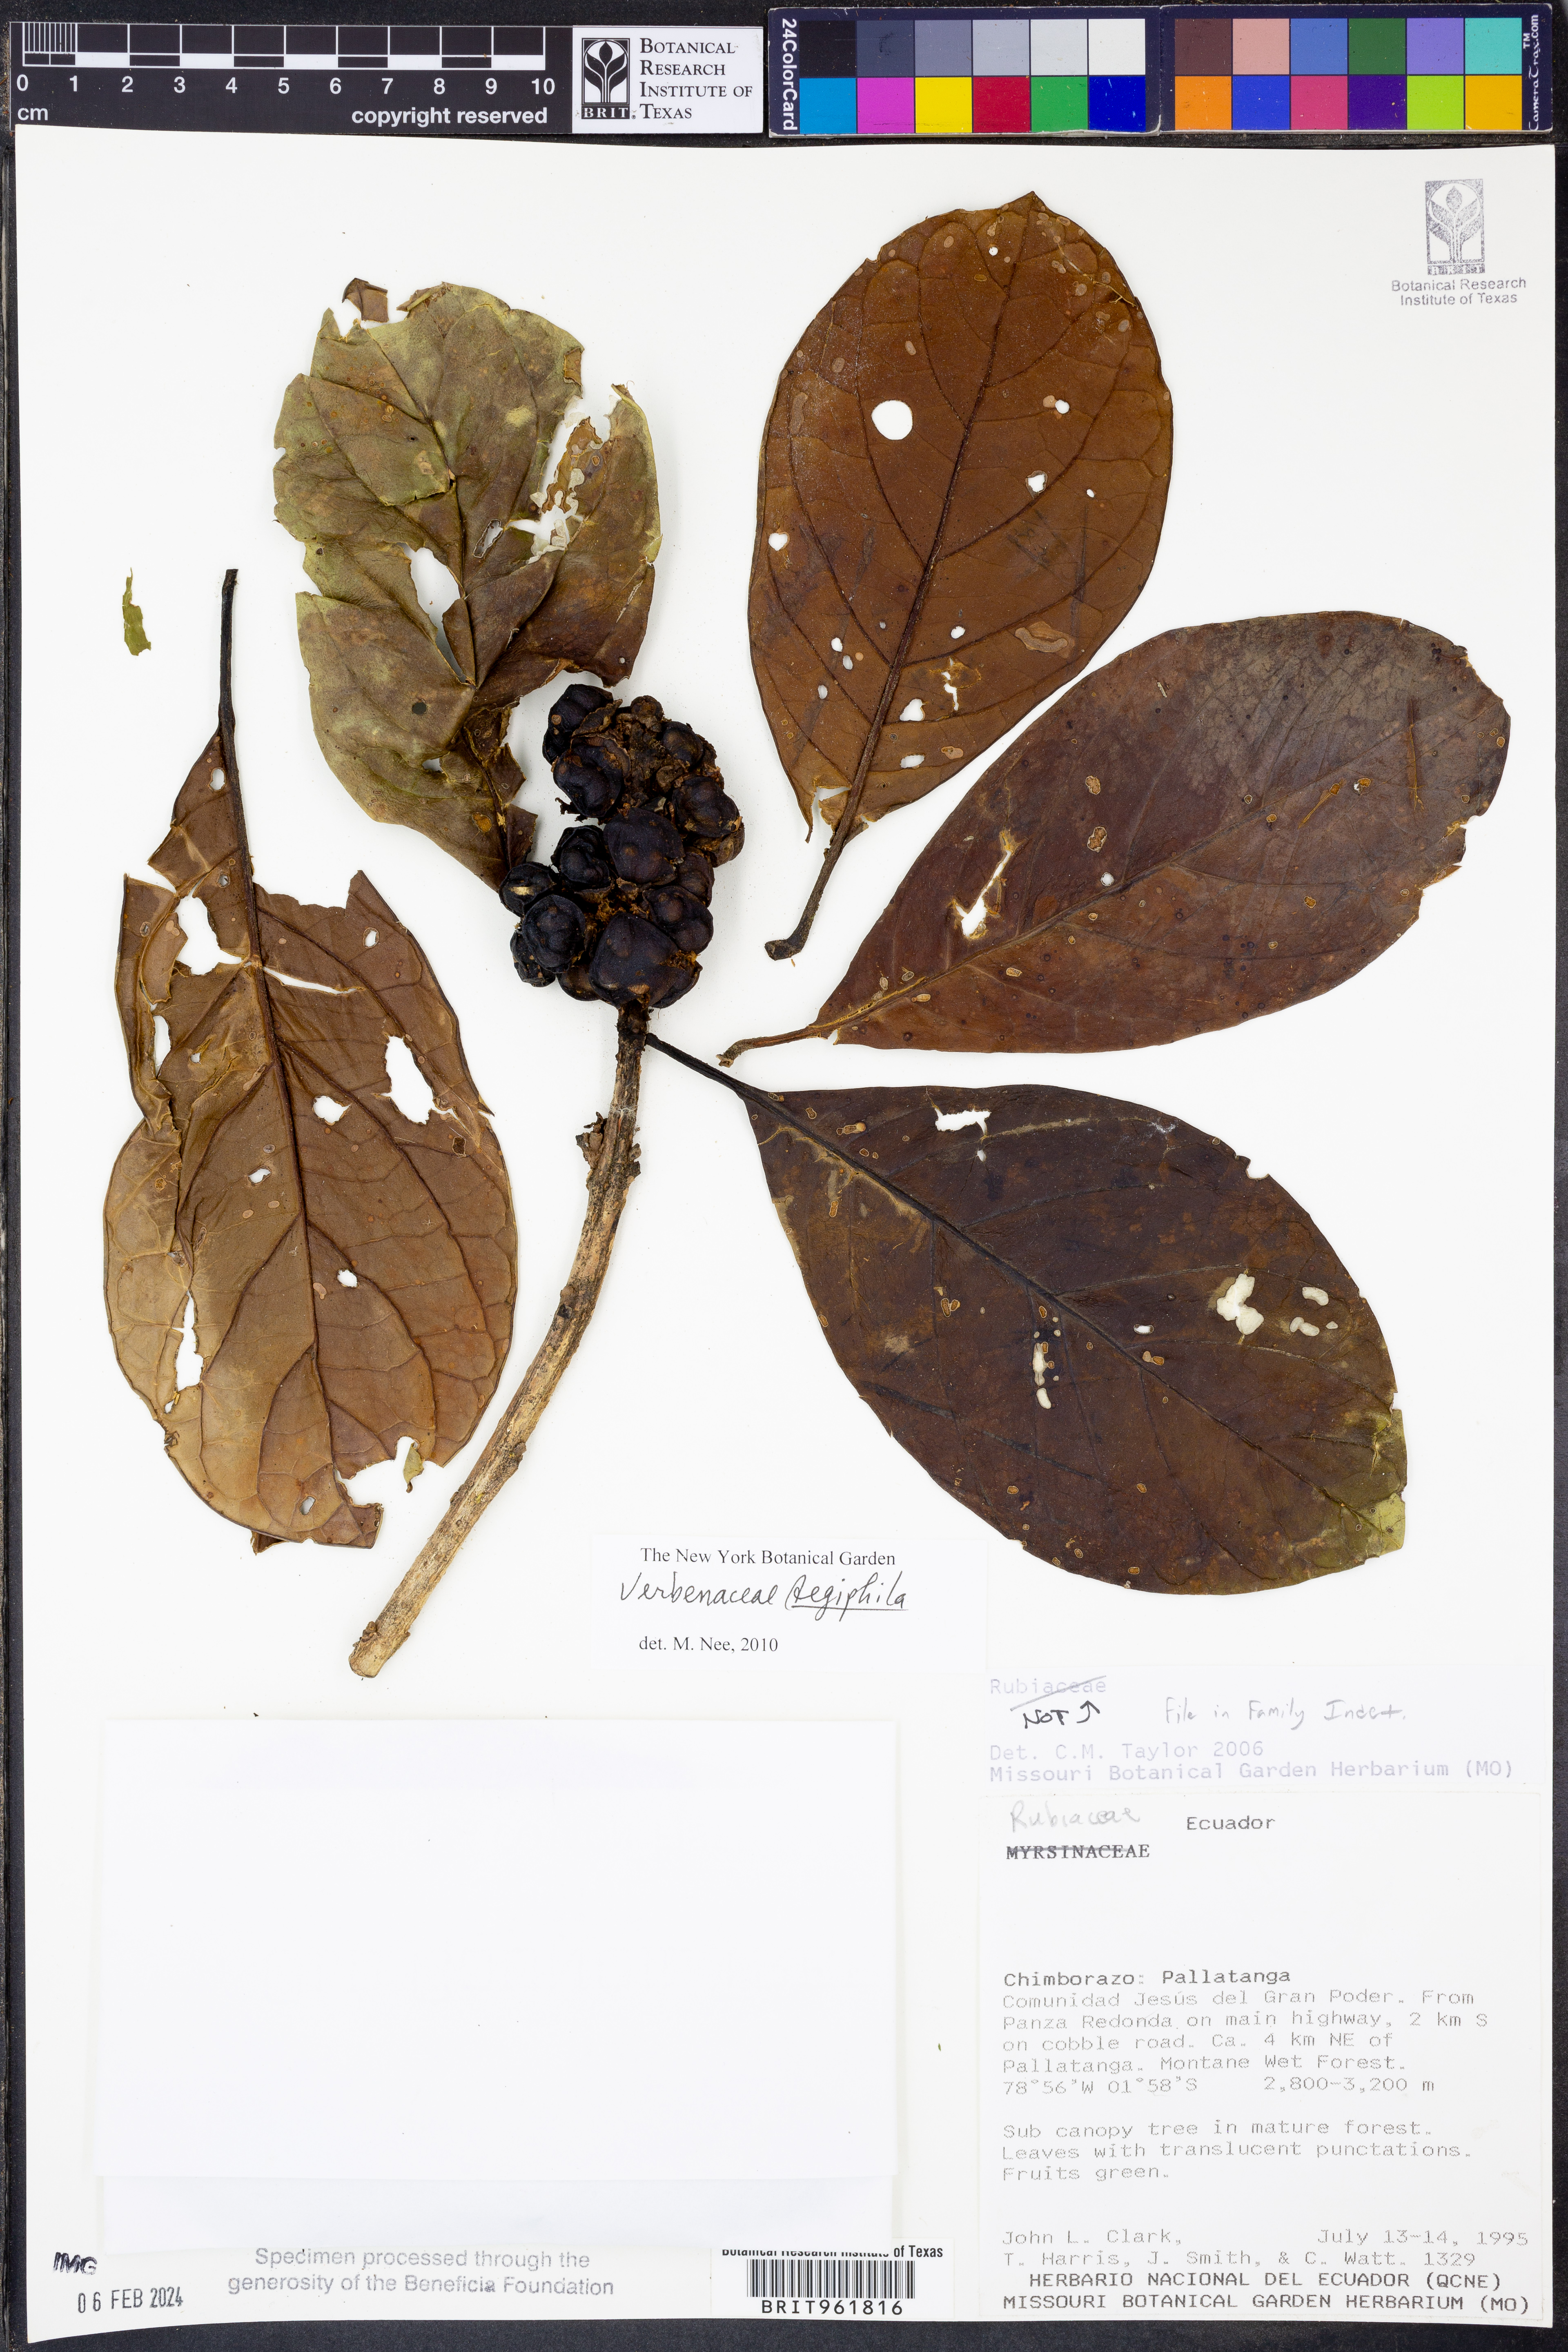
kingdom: Plantae
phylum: Tracheophyta
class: Magnoliopsida
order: Lamiales
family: Lamiaceae
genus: Aegiphila
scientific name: Aegiphila
